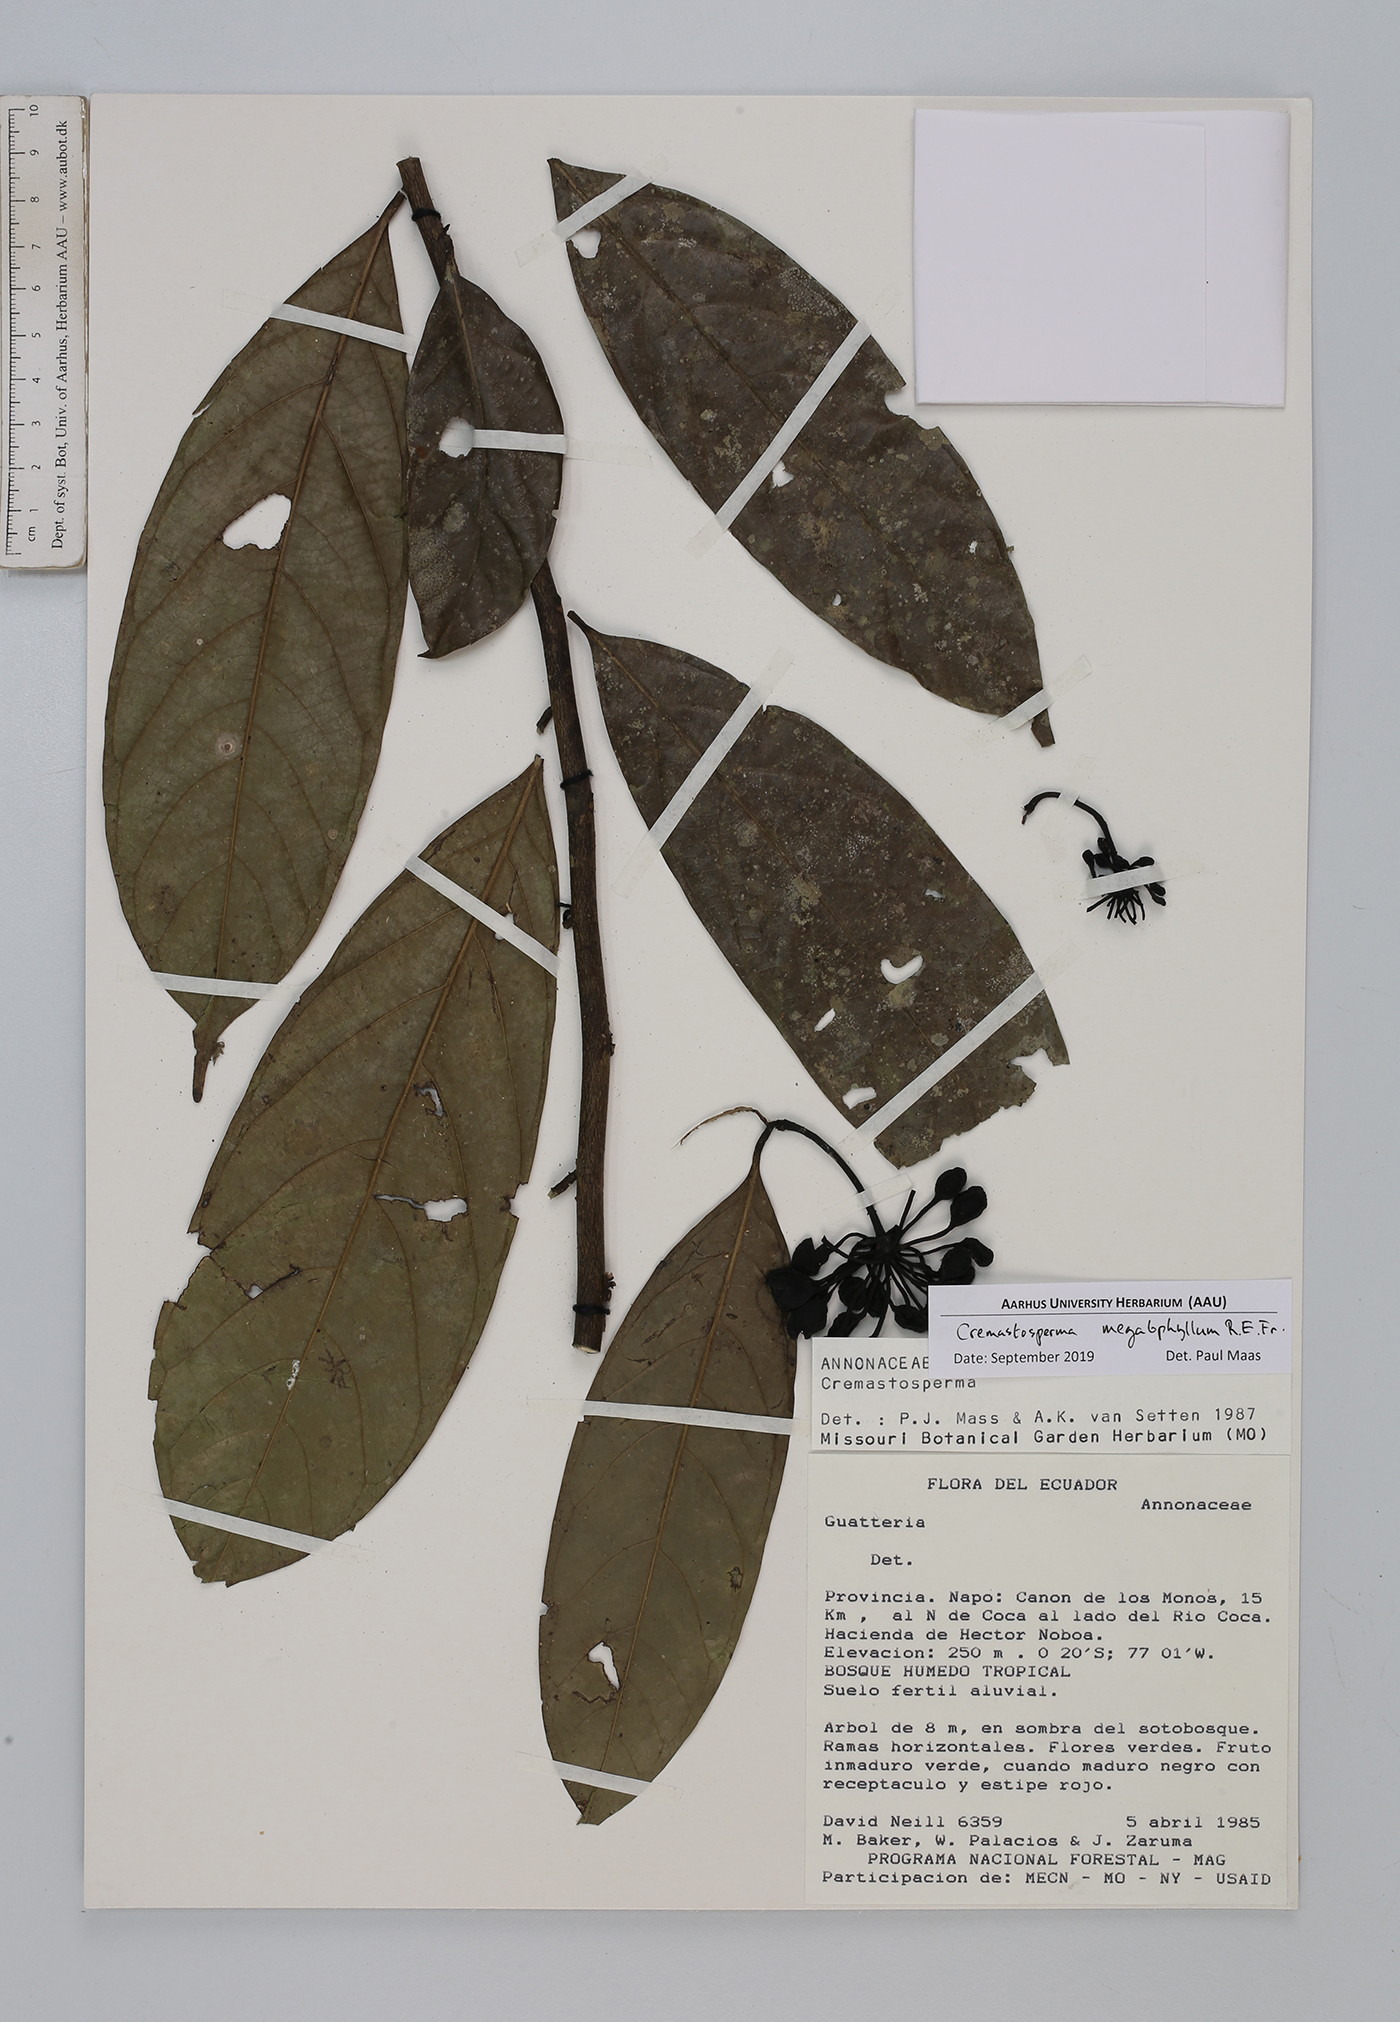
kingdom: Plantae
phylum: Tracheophyta
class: Magnoliopsida
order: Magnoliales
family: Annonaceae
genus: Cremastosperma
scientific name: Cremastosperma megalophyllum
